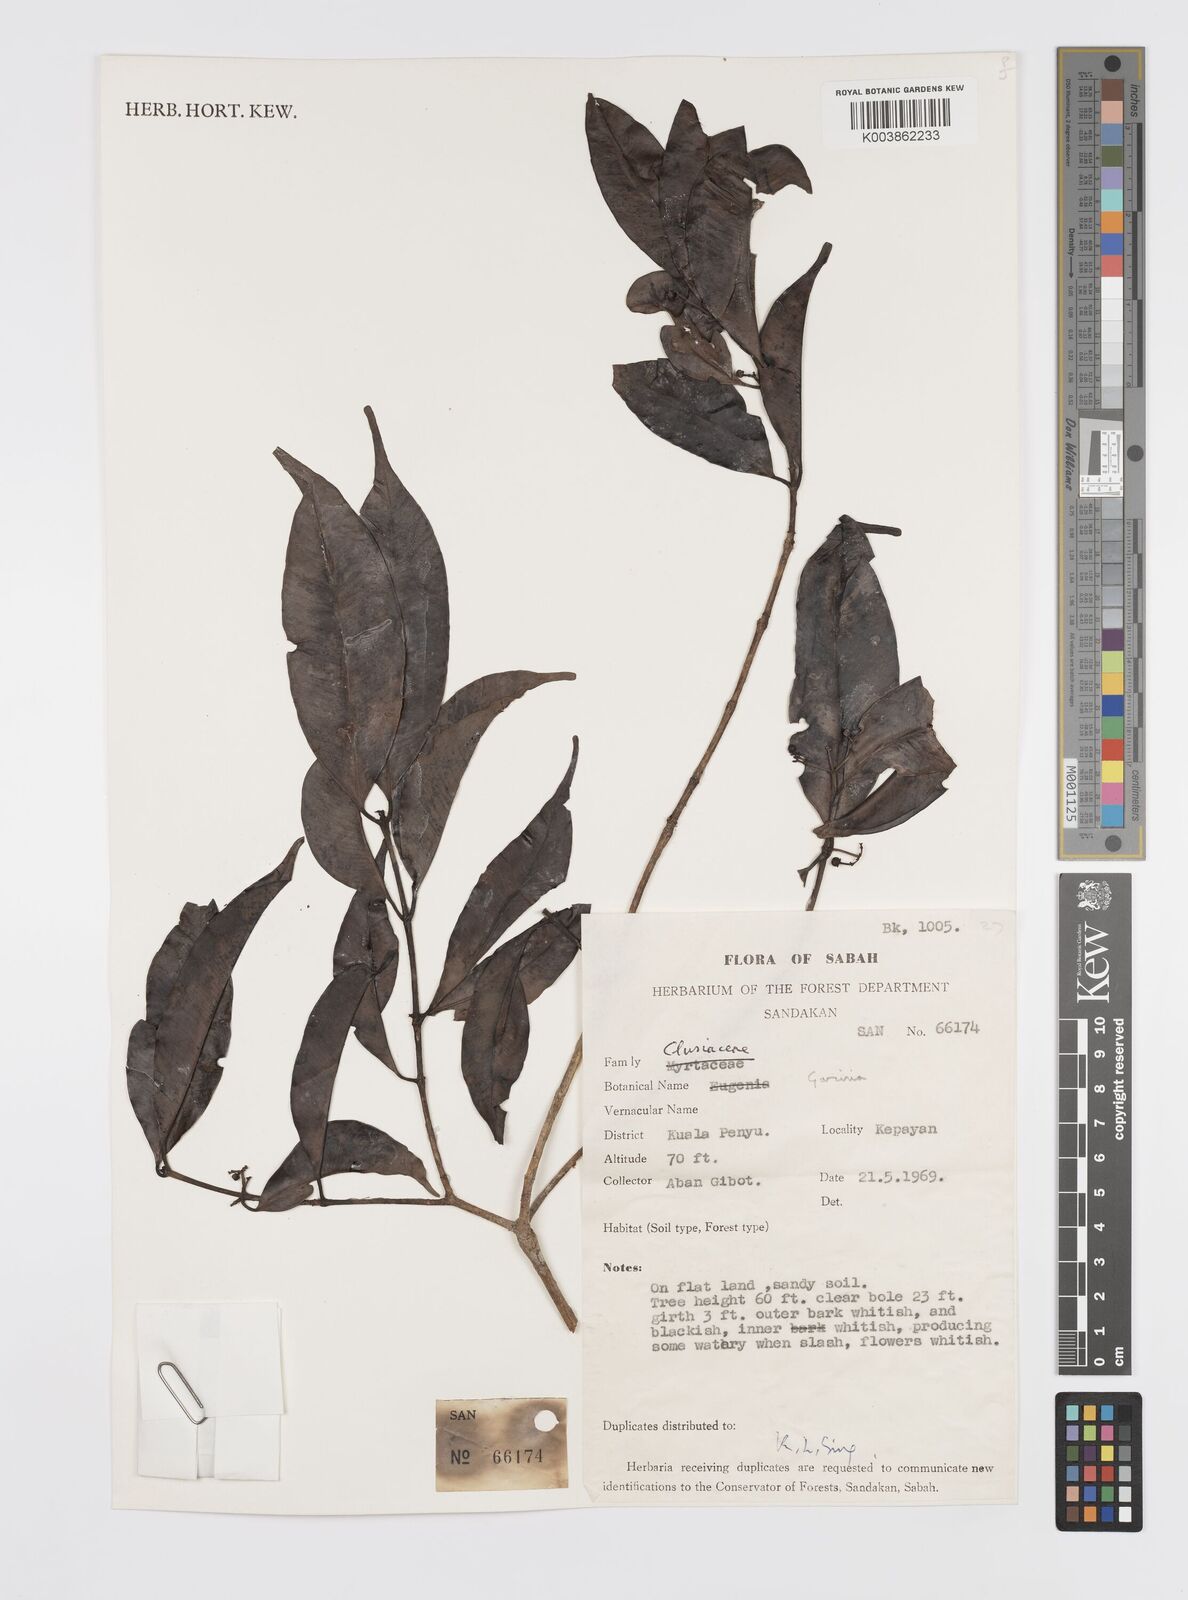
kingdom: Plantae
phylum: Tracheophyta
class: Magnoliopsida
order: Malpighiales
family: Clusiaceae
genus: Garcinia
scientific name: Garcinia
